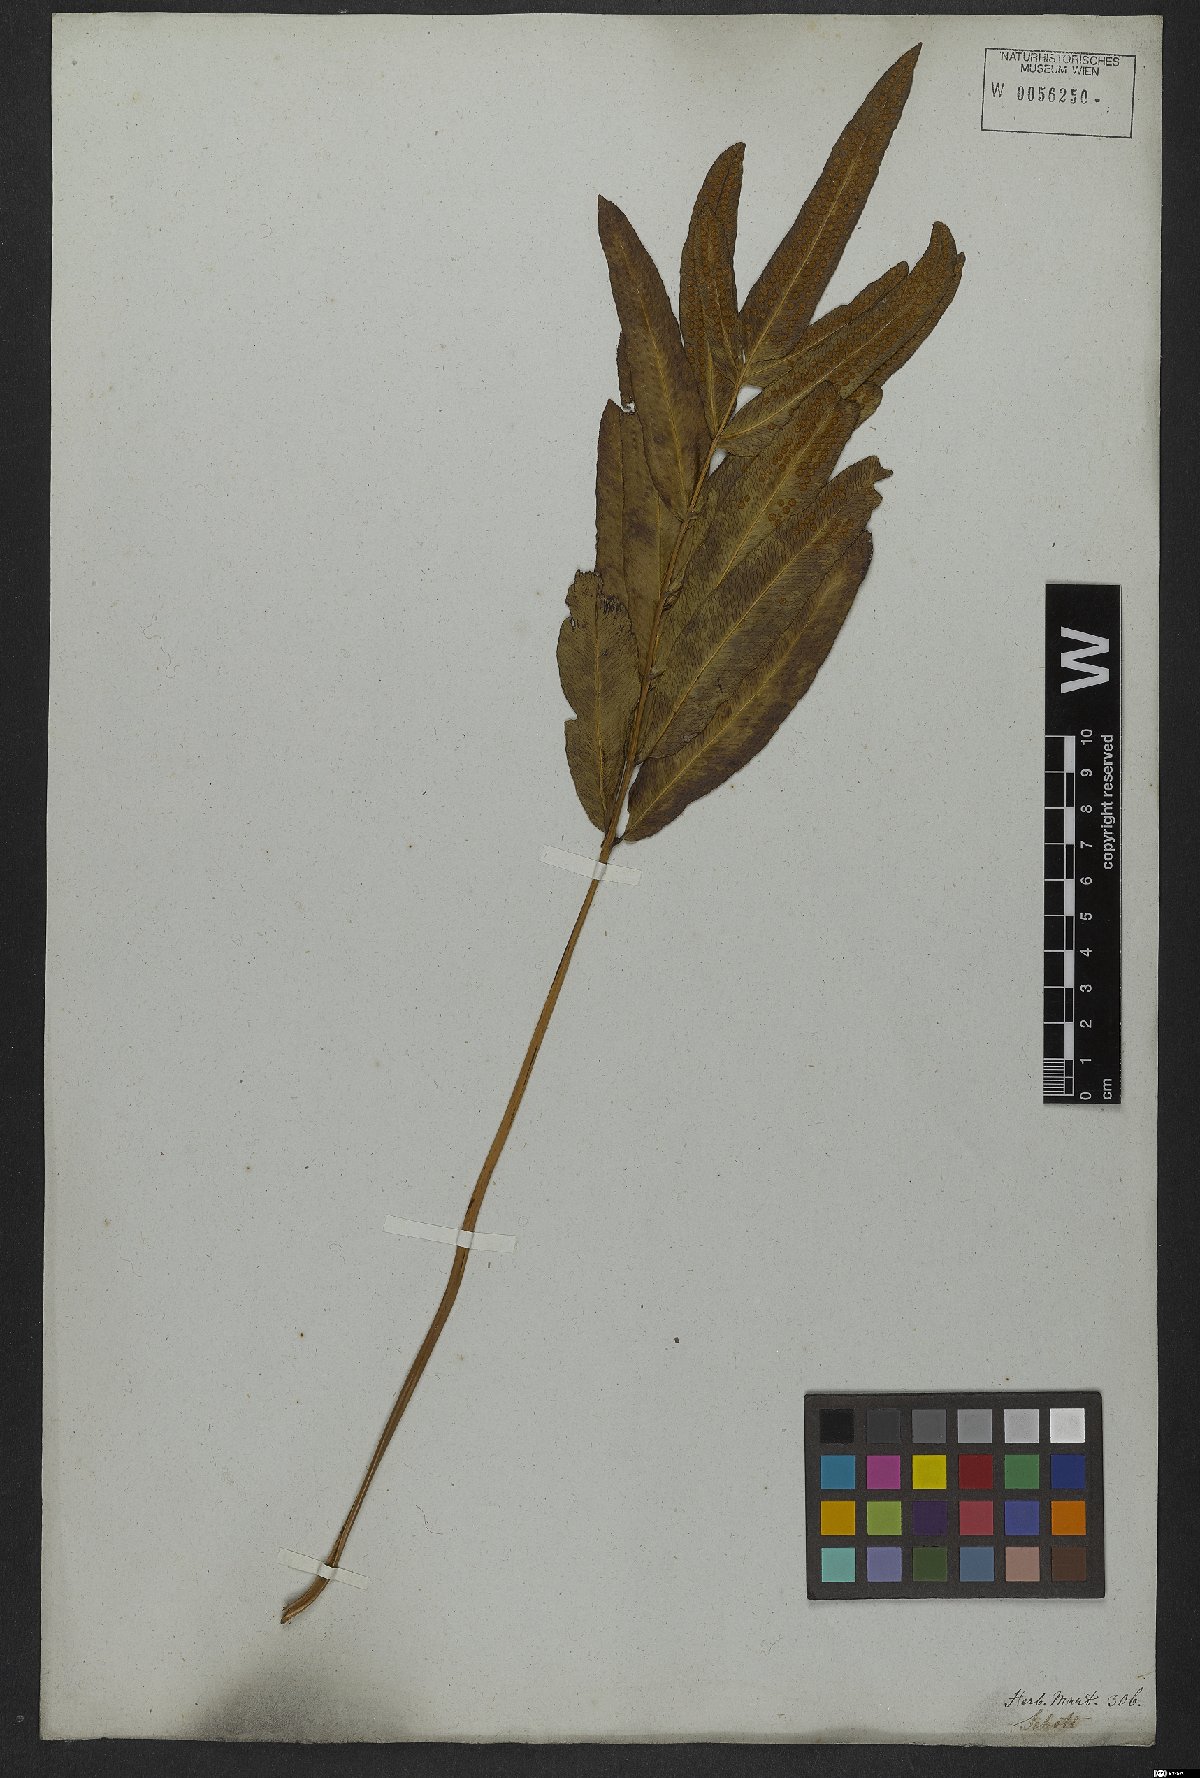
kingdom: Plantae
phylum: Tracheophyta
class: Polypodiopsida
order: Polypodiales
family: Polypodiaceae
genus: Serpocaulon
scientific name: Serpocaulon triseriale
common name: Angle-vein fern
